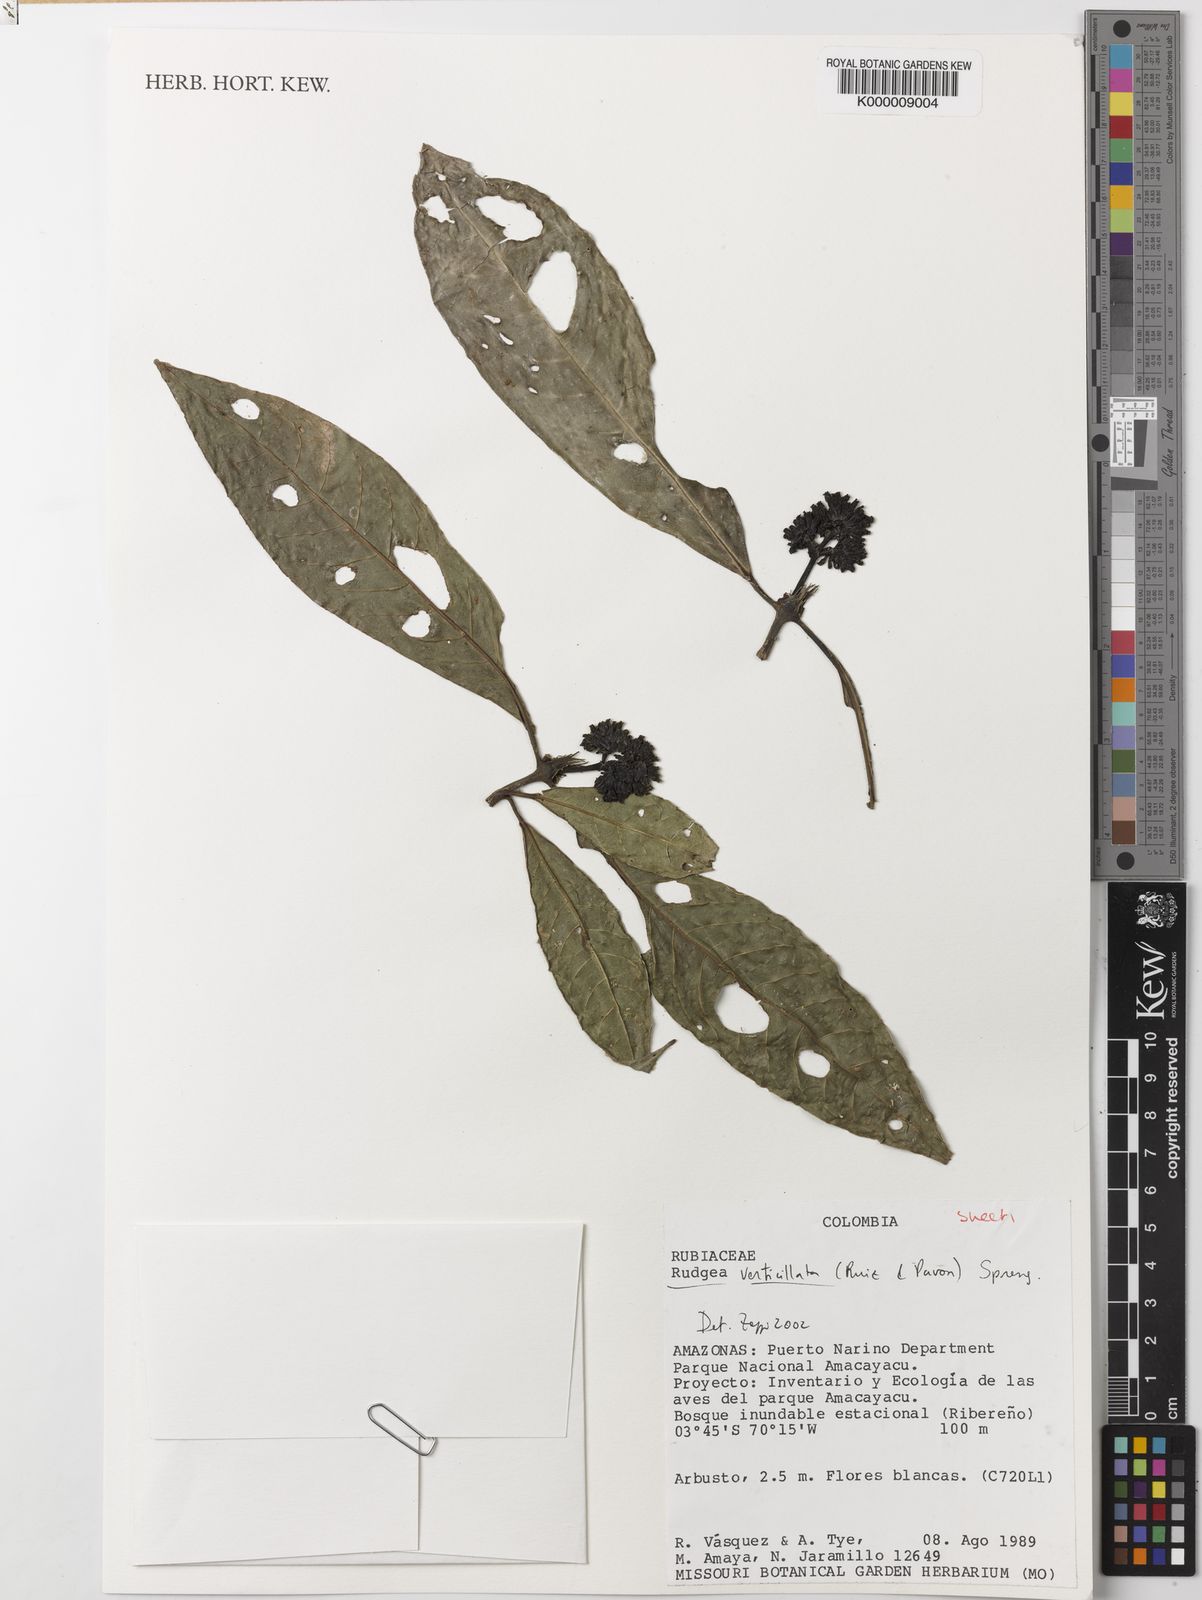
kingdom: Plantae
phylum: Tracheophyta
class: Magnoliopsida
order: Gentianales
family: Rubiaceae
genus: Rudgea
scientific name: Rudgea verticillata
